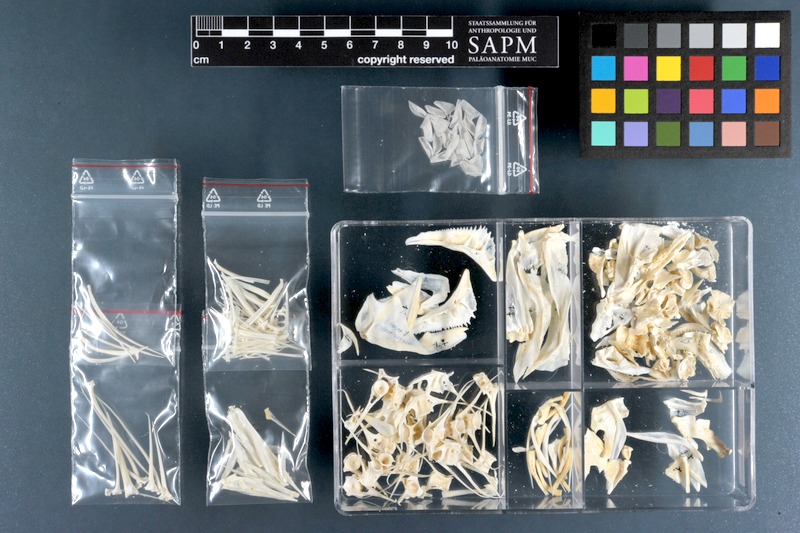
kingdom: Animalia
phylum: Chordata
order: Perciformes
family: Sciaenidae
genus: Umbrina
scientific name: Umbrina ronchus
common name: Slender baardman
